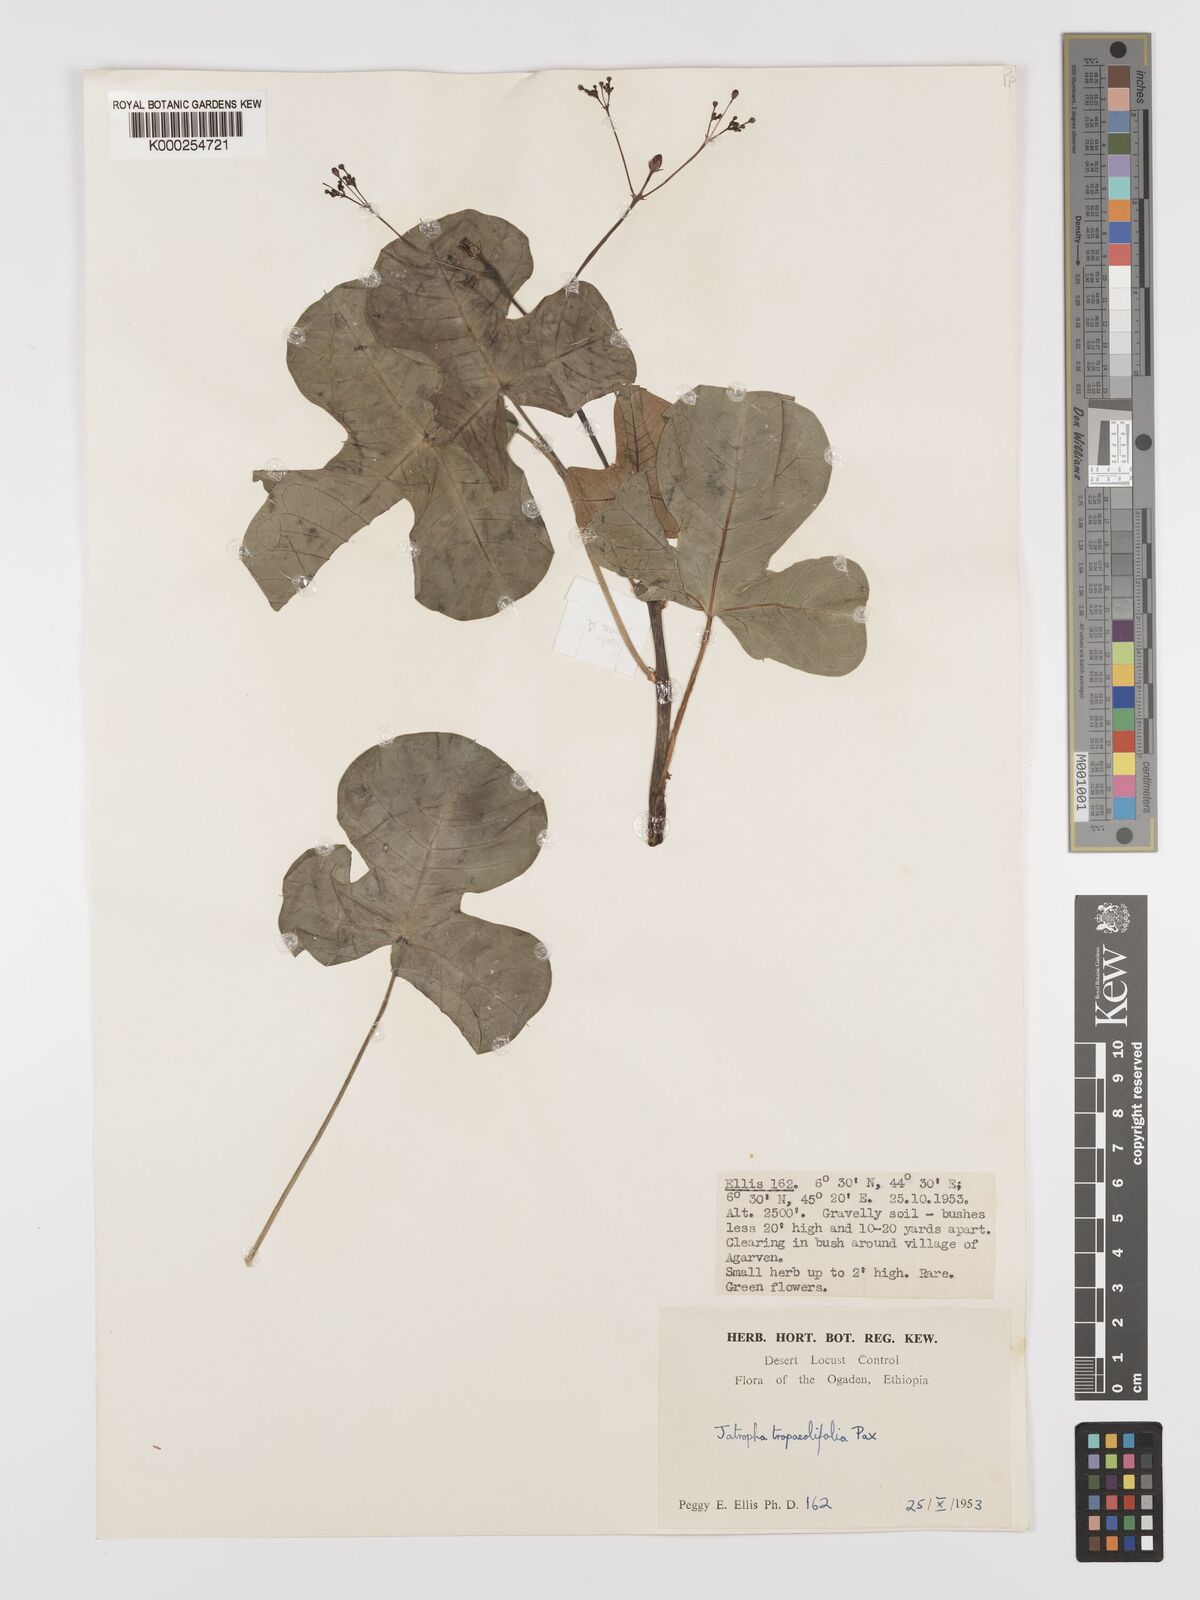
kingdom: Plantae
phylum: Tracheophyta
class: Magnoliopsida
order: Malpighiales
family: Euphorbiaceae
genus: Jatropha
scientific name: Jatropha tropaeolifolia
